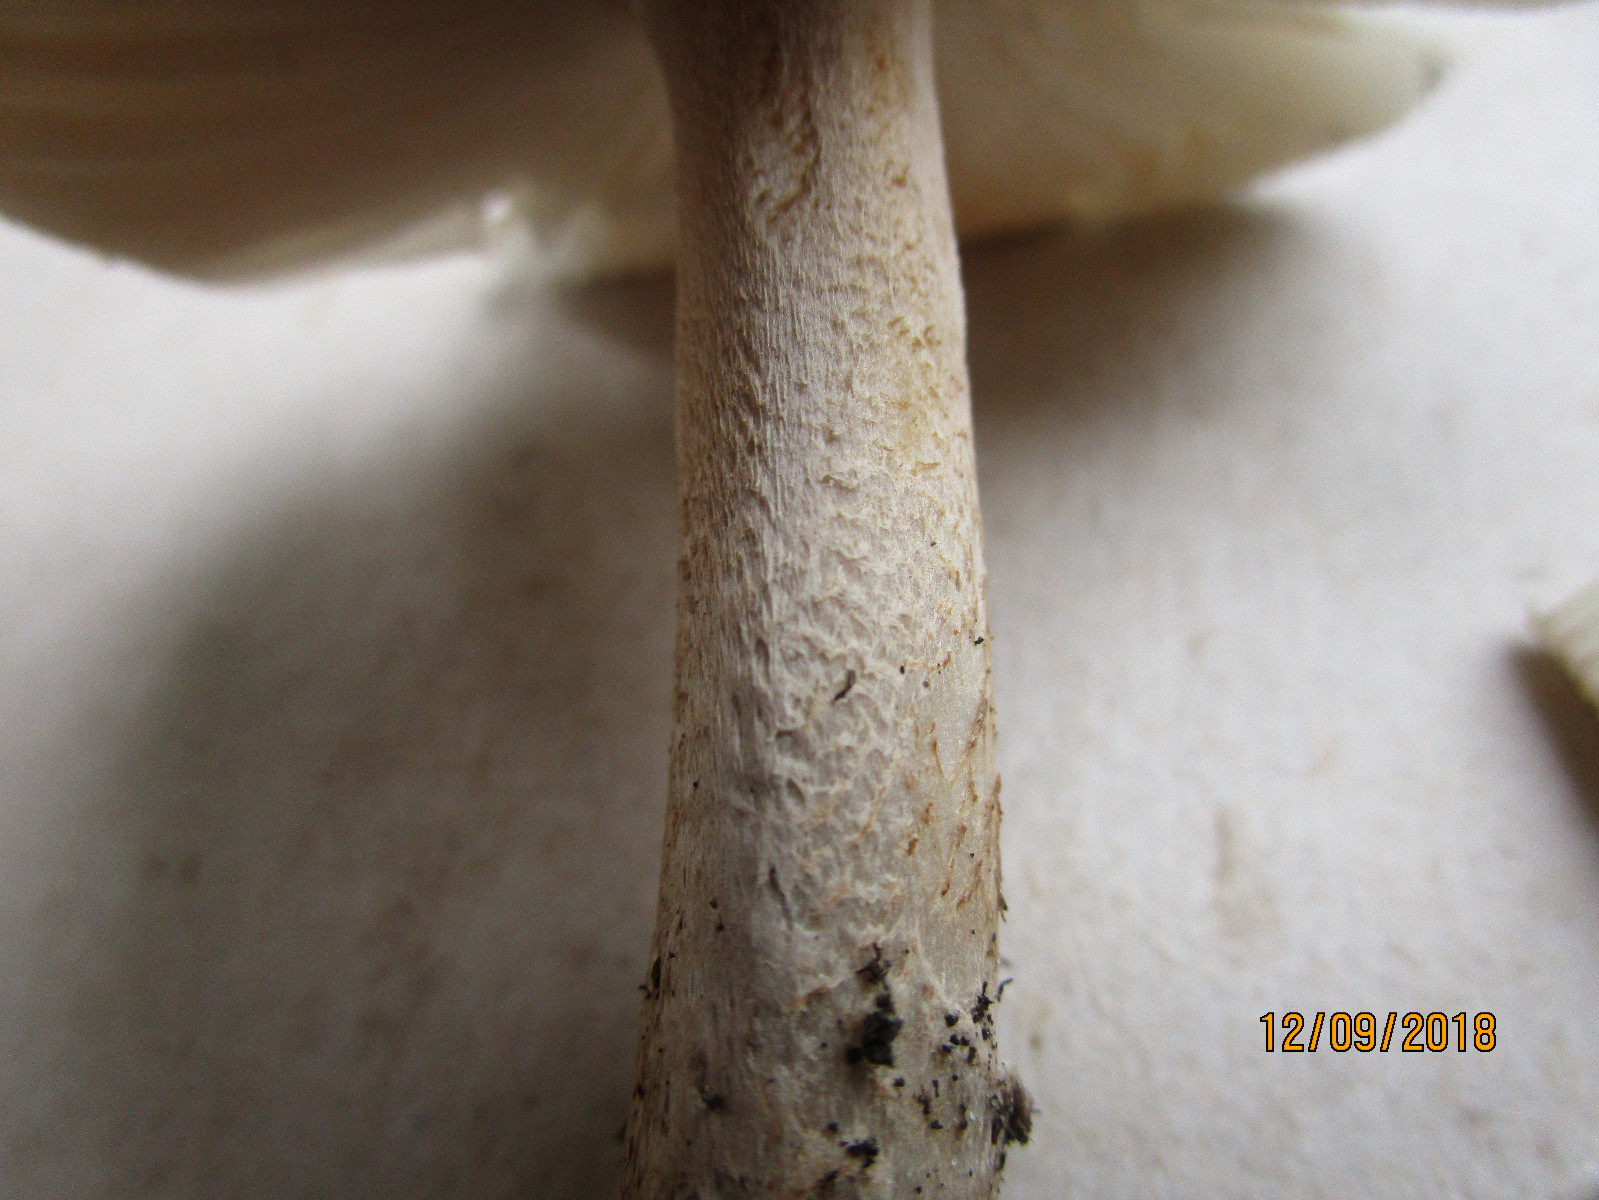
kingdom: Fungi
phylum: Basidiomycota
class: Agaricomycetes
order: Agaricales
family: Amanitaceae
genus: Amanita
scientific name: Amanita
